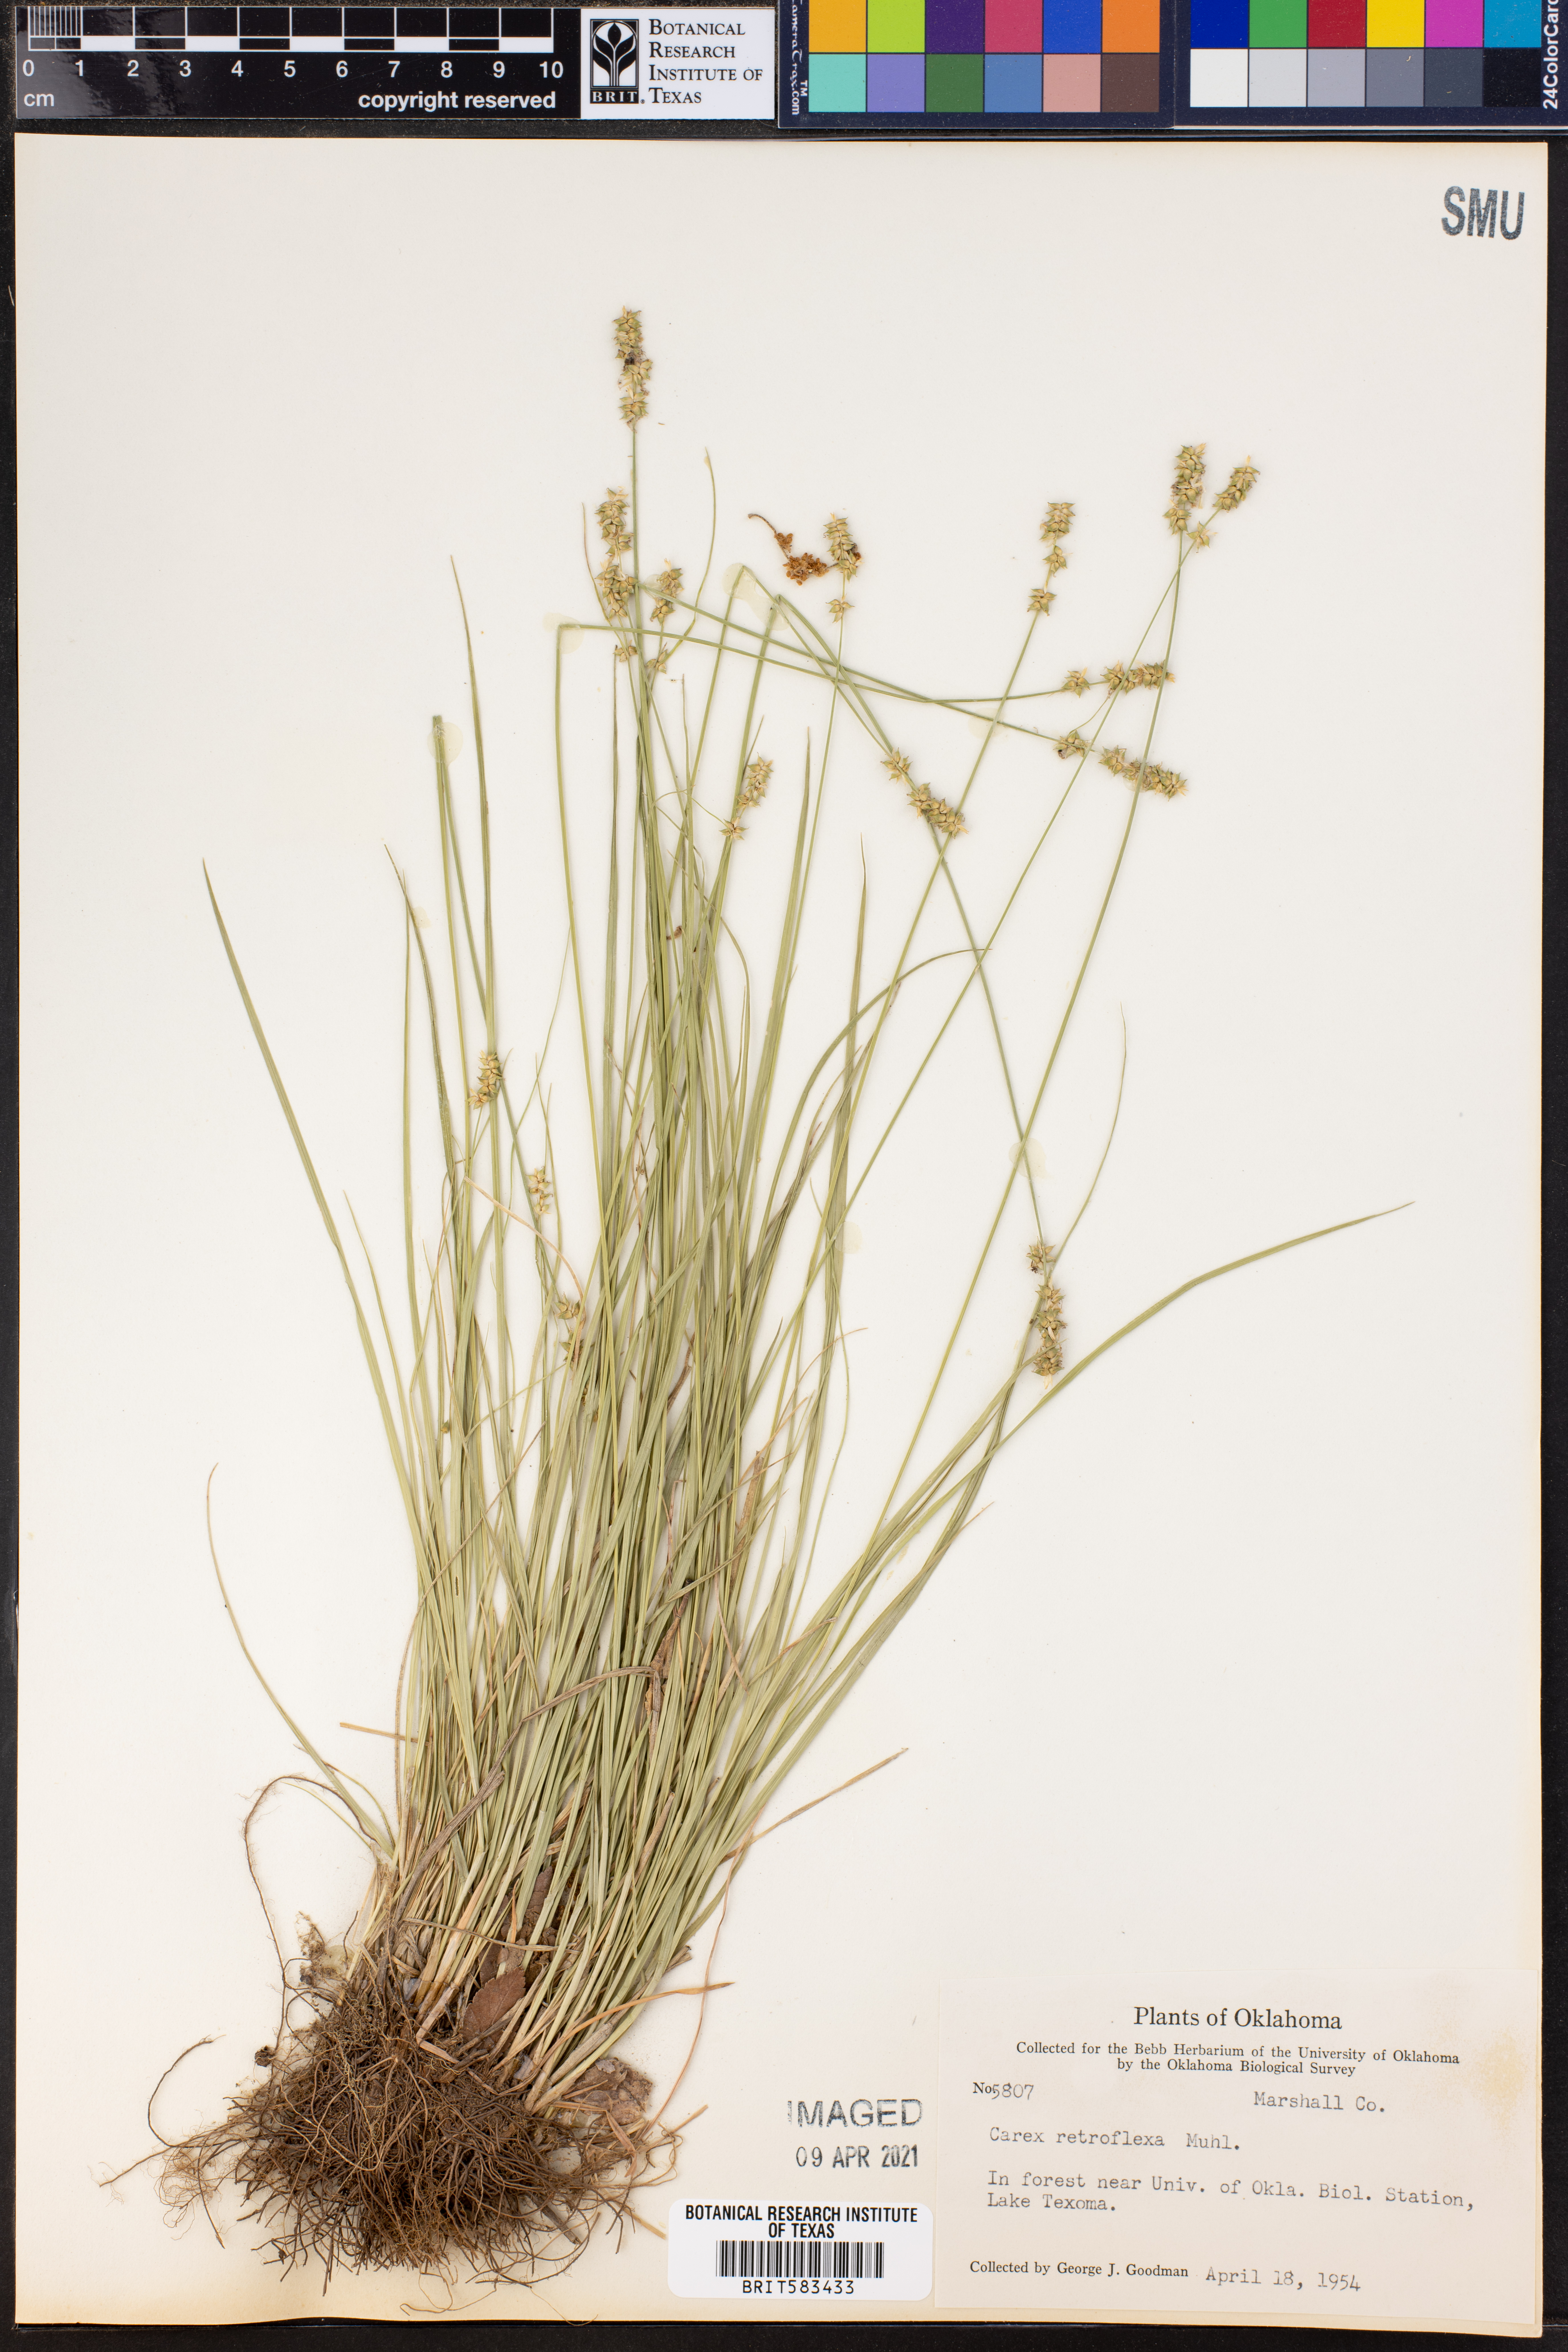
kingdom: Plantae
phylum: Tracheophyta
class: Liliopsida
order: Poales
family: Cyperaceae
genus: Carex
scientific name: Carex retroflexa
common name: Reflexed sedge
